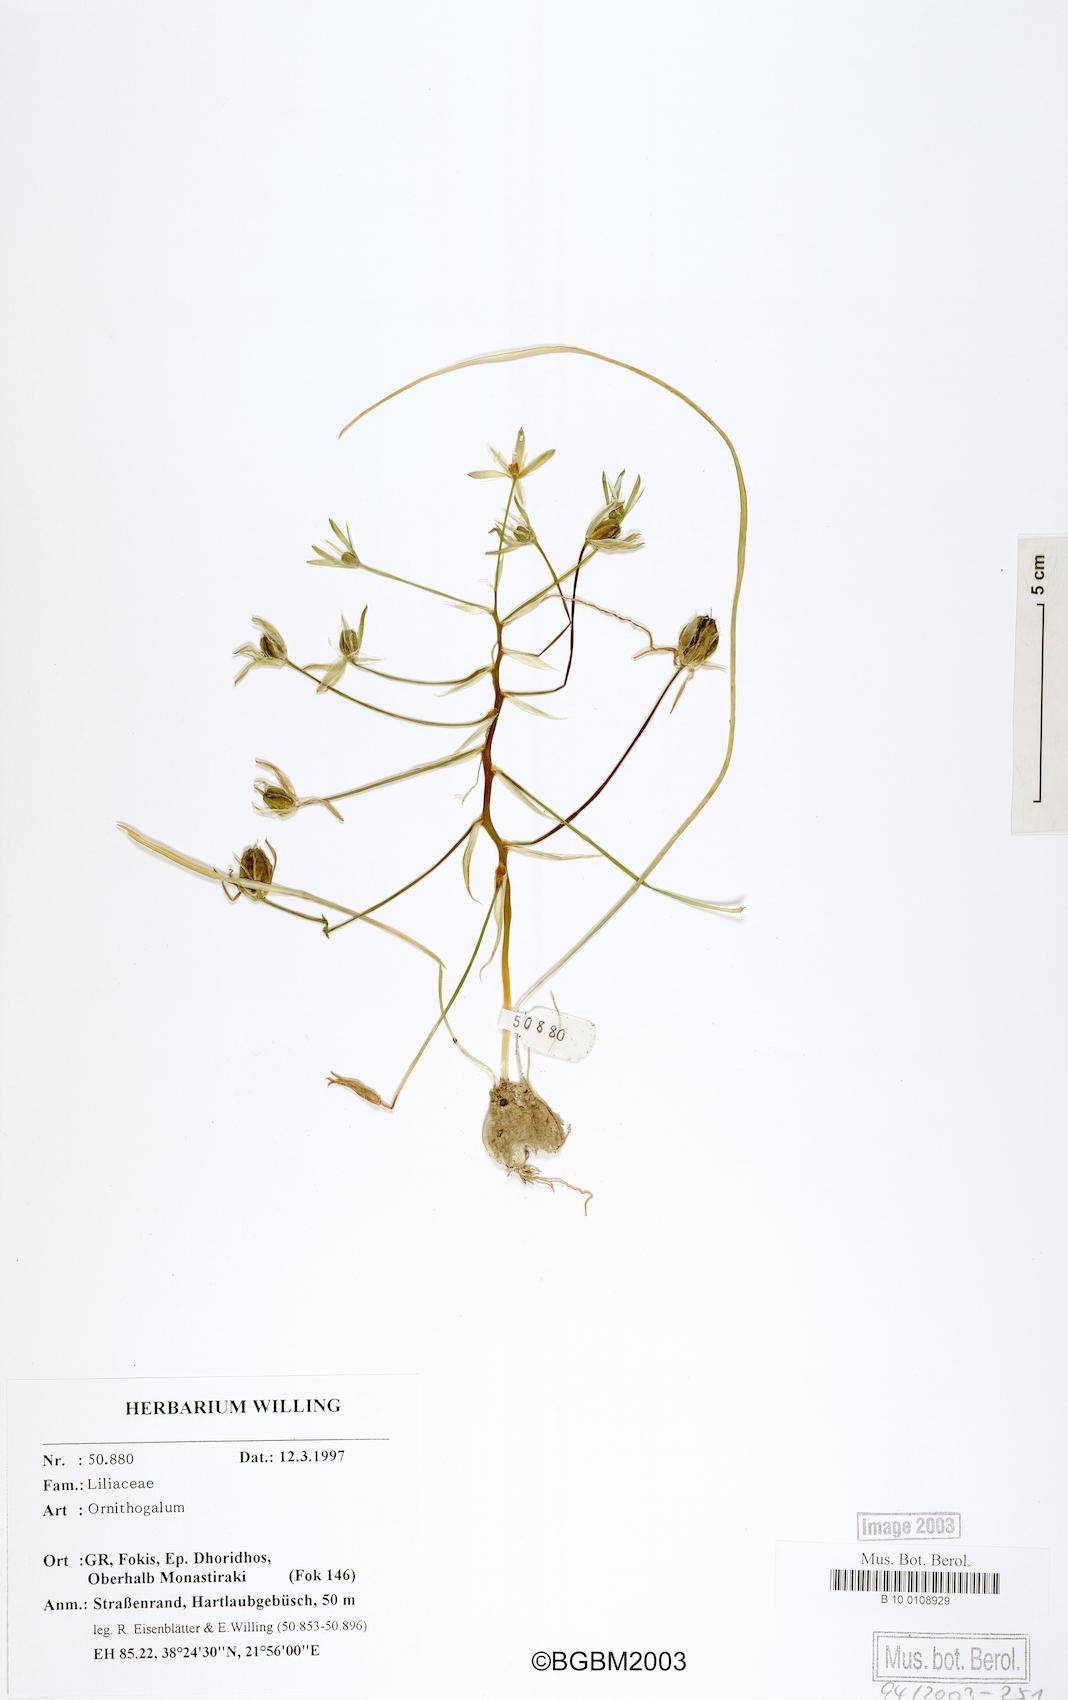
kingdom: Plantae
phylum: Tracheophyta
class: Liliopsida
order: Asparagales
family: Asparagaceae
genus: Ornithogalum
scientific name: Ornithogalum
